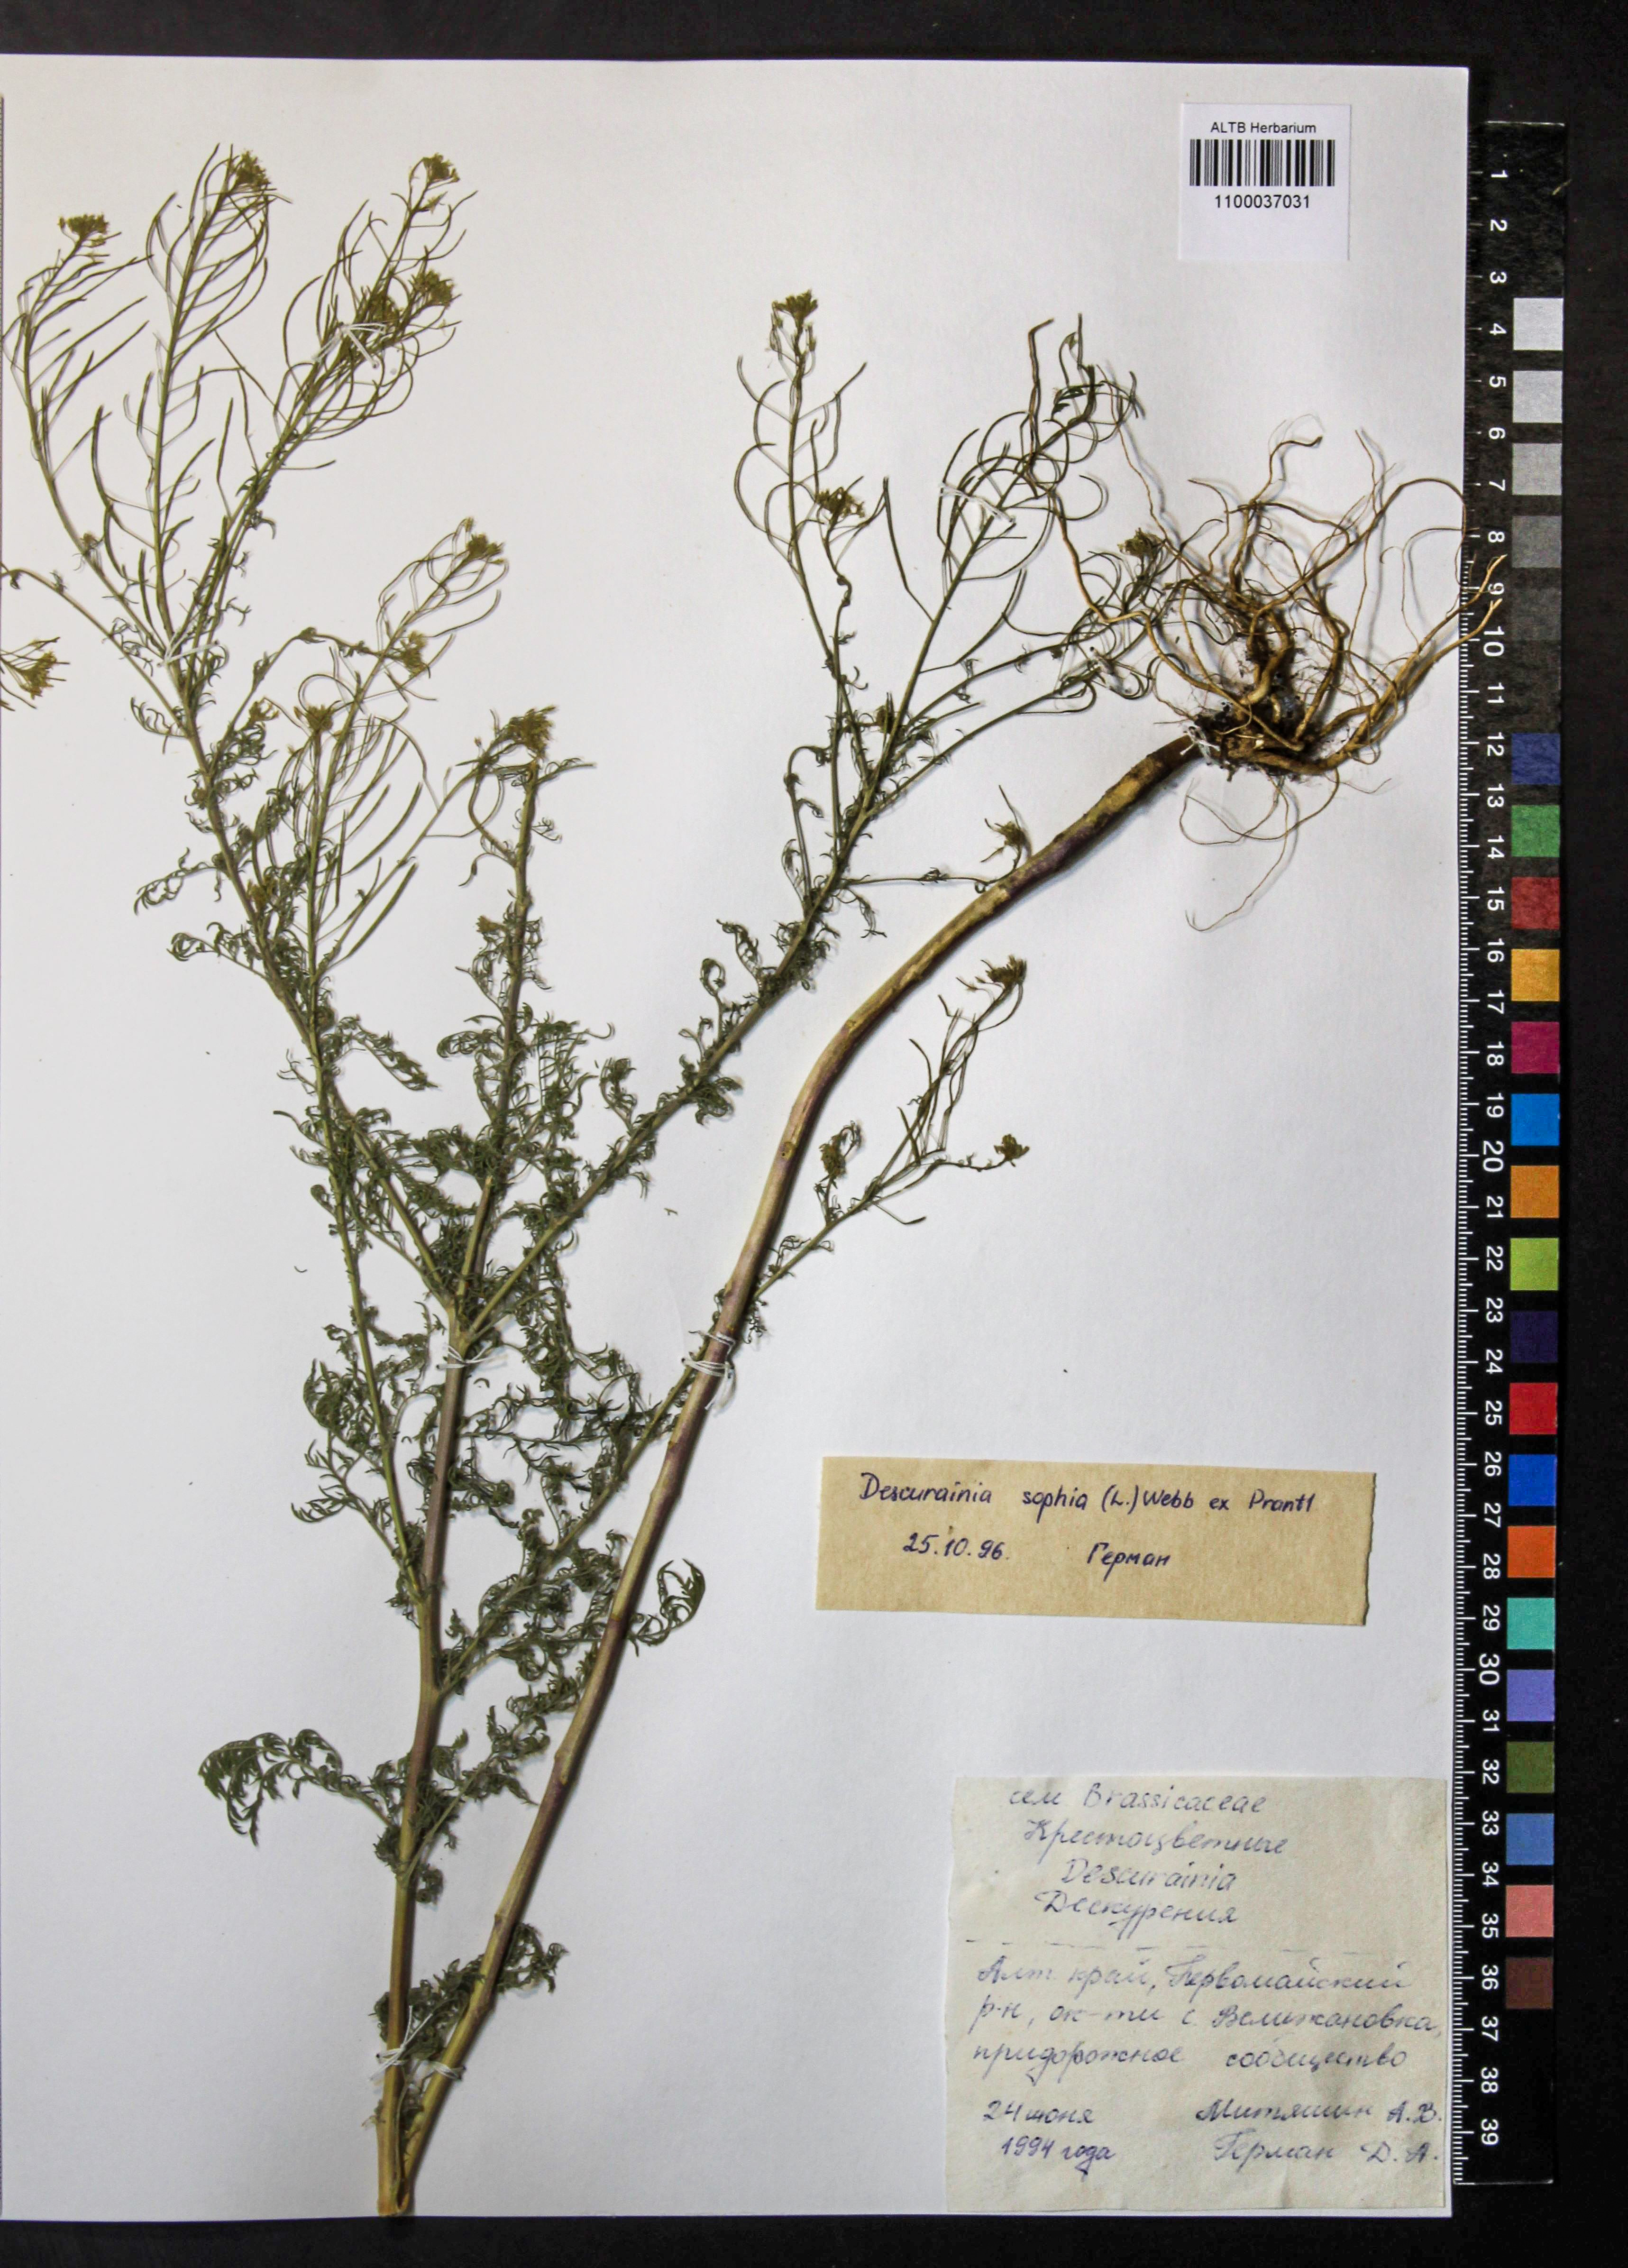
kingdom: Plantae
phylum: Tracheophyta
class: Magnoliopsida
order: Brassicales
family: Brassicaceae
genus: Descurainia
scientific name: Descurainia sophia
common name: Flixweed
